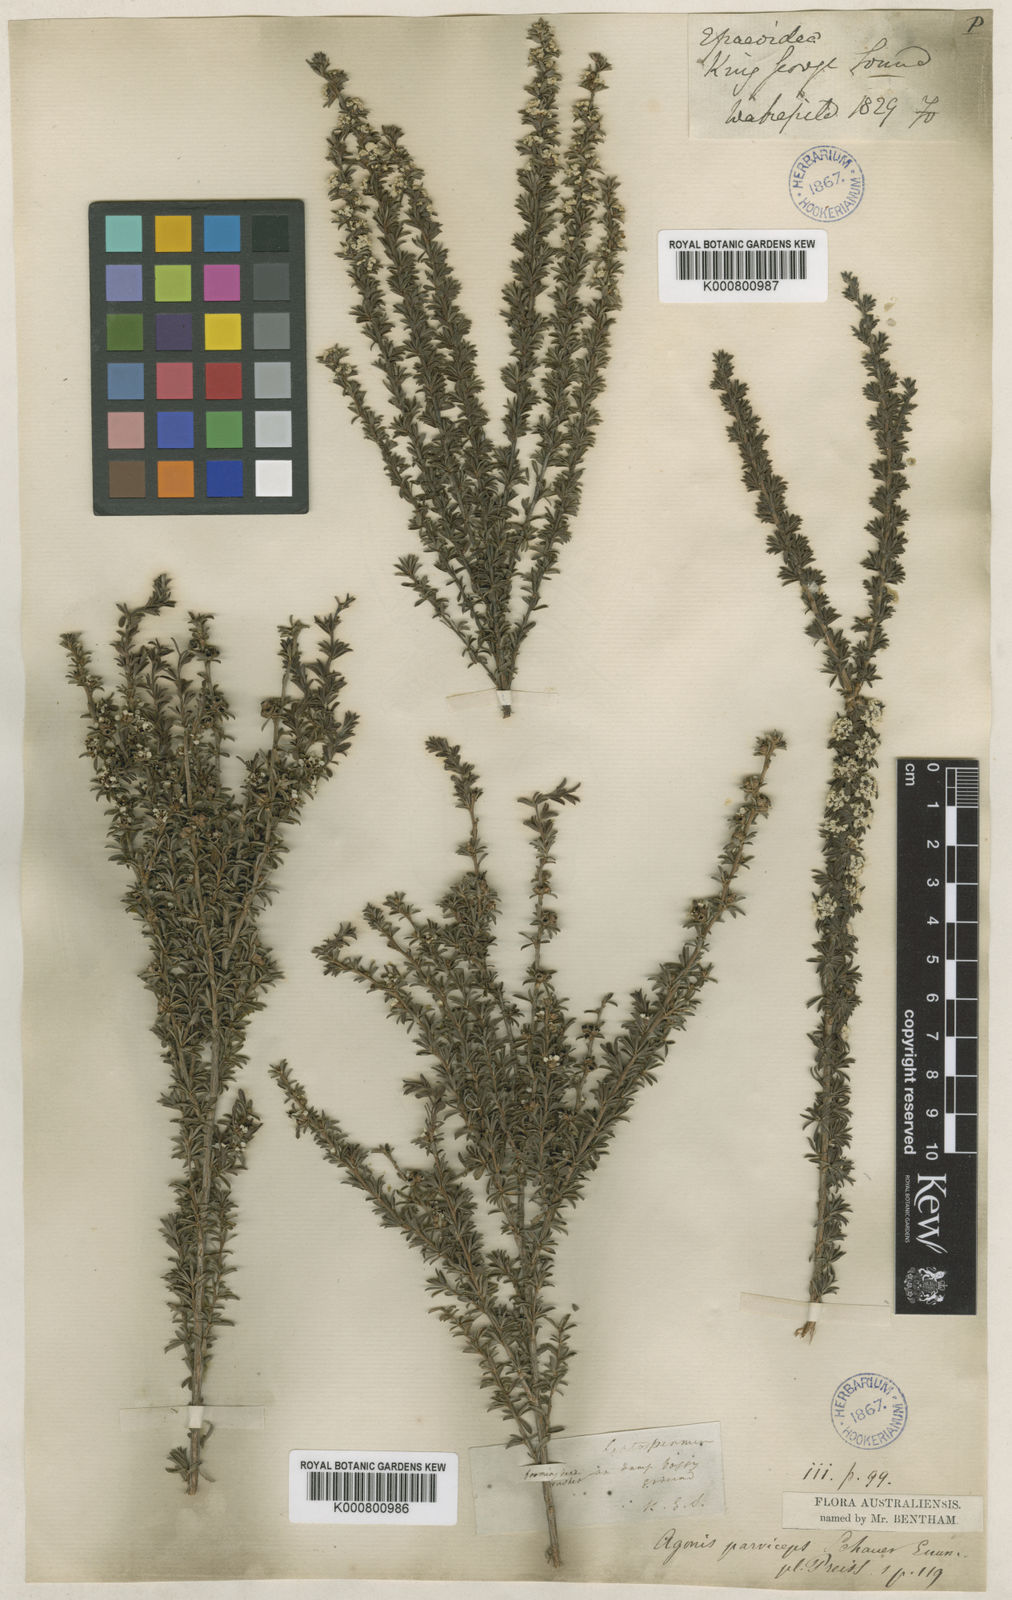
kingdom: Plantae
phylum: Tracheophyta
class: Magnoliopsida
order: Myrtales
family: Myrtaceae
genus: Taxandria
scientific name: Taxandria parviceps
